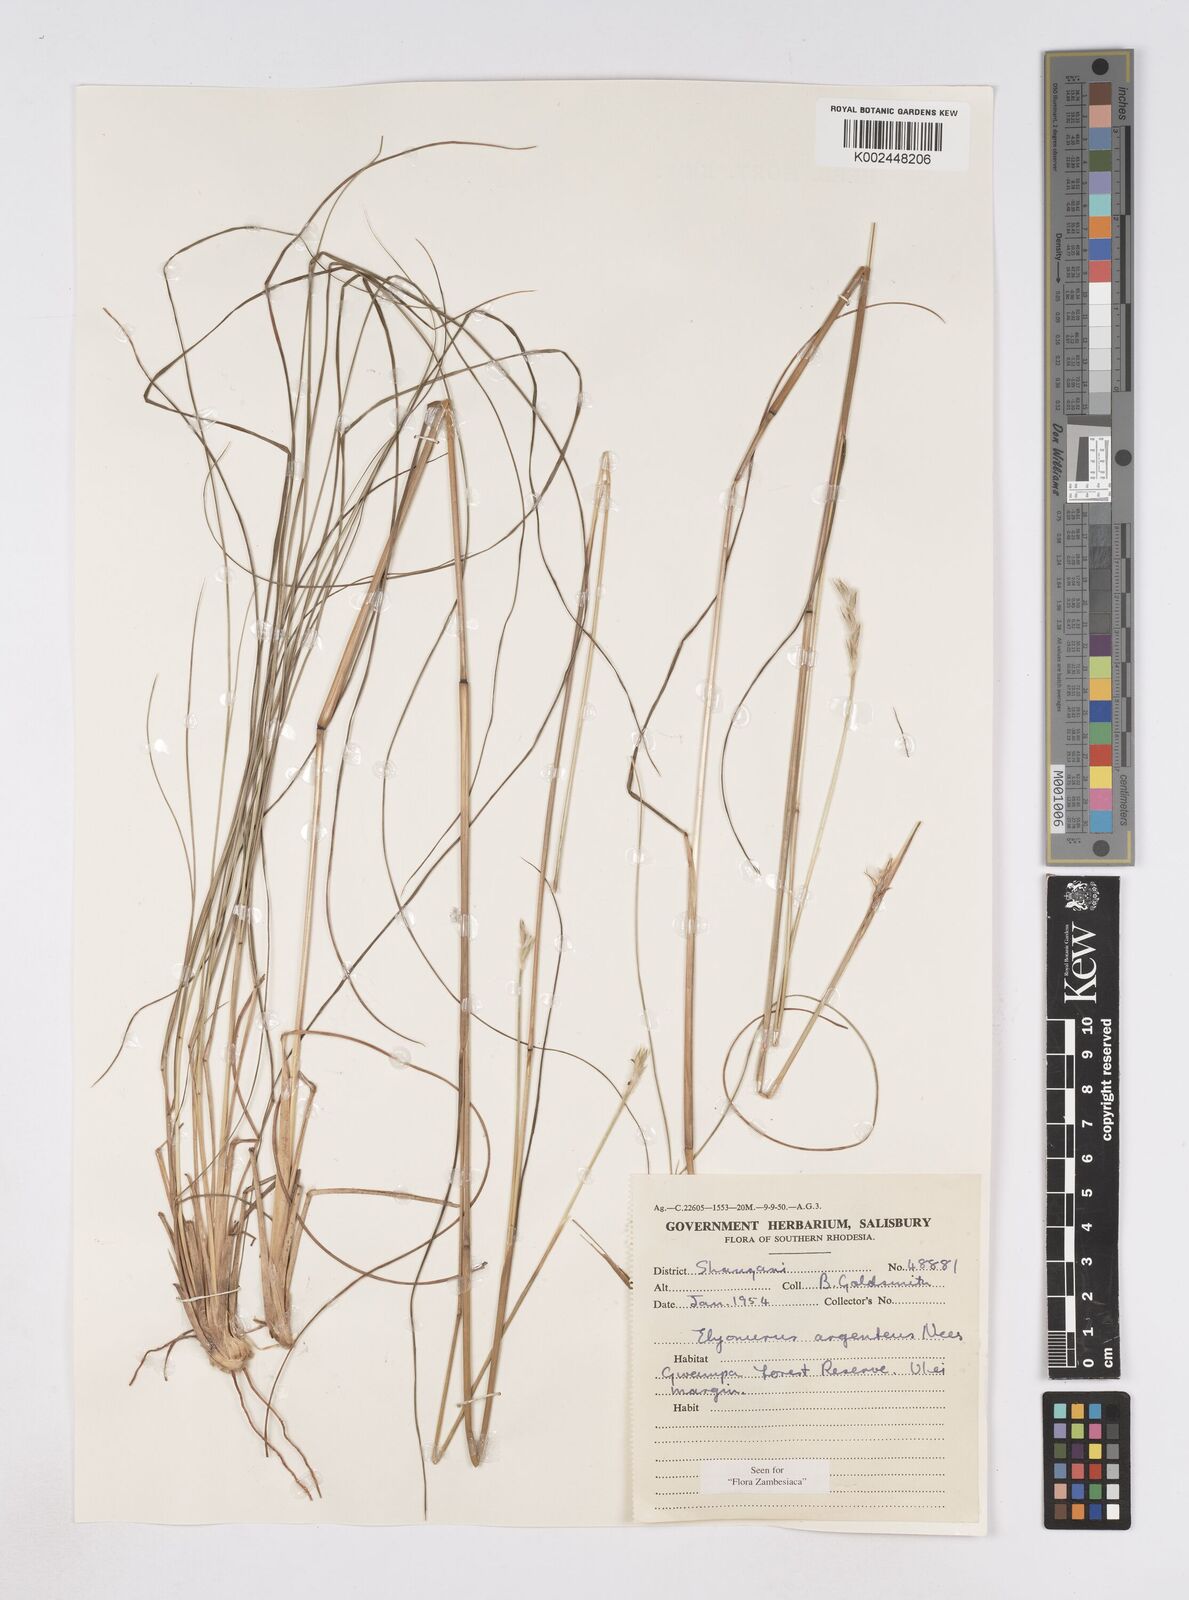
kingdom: Plantae
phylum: Tracheophyta
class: Liliopsida
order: Poales
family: Poaceae
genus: Elionurus
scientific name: Elionurus muticus
